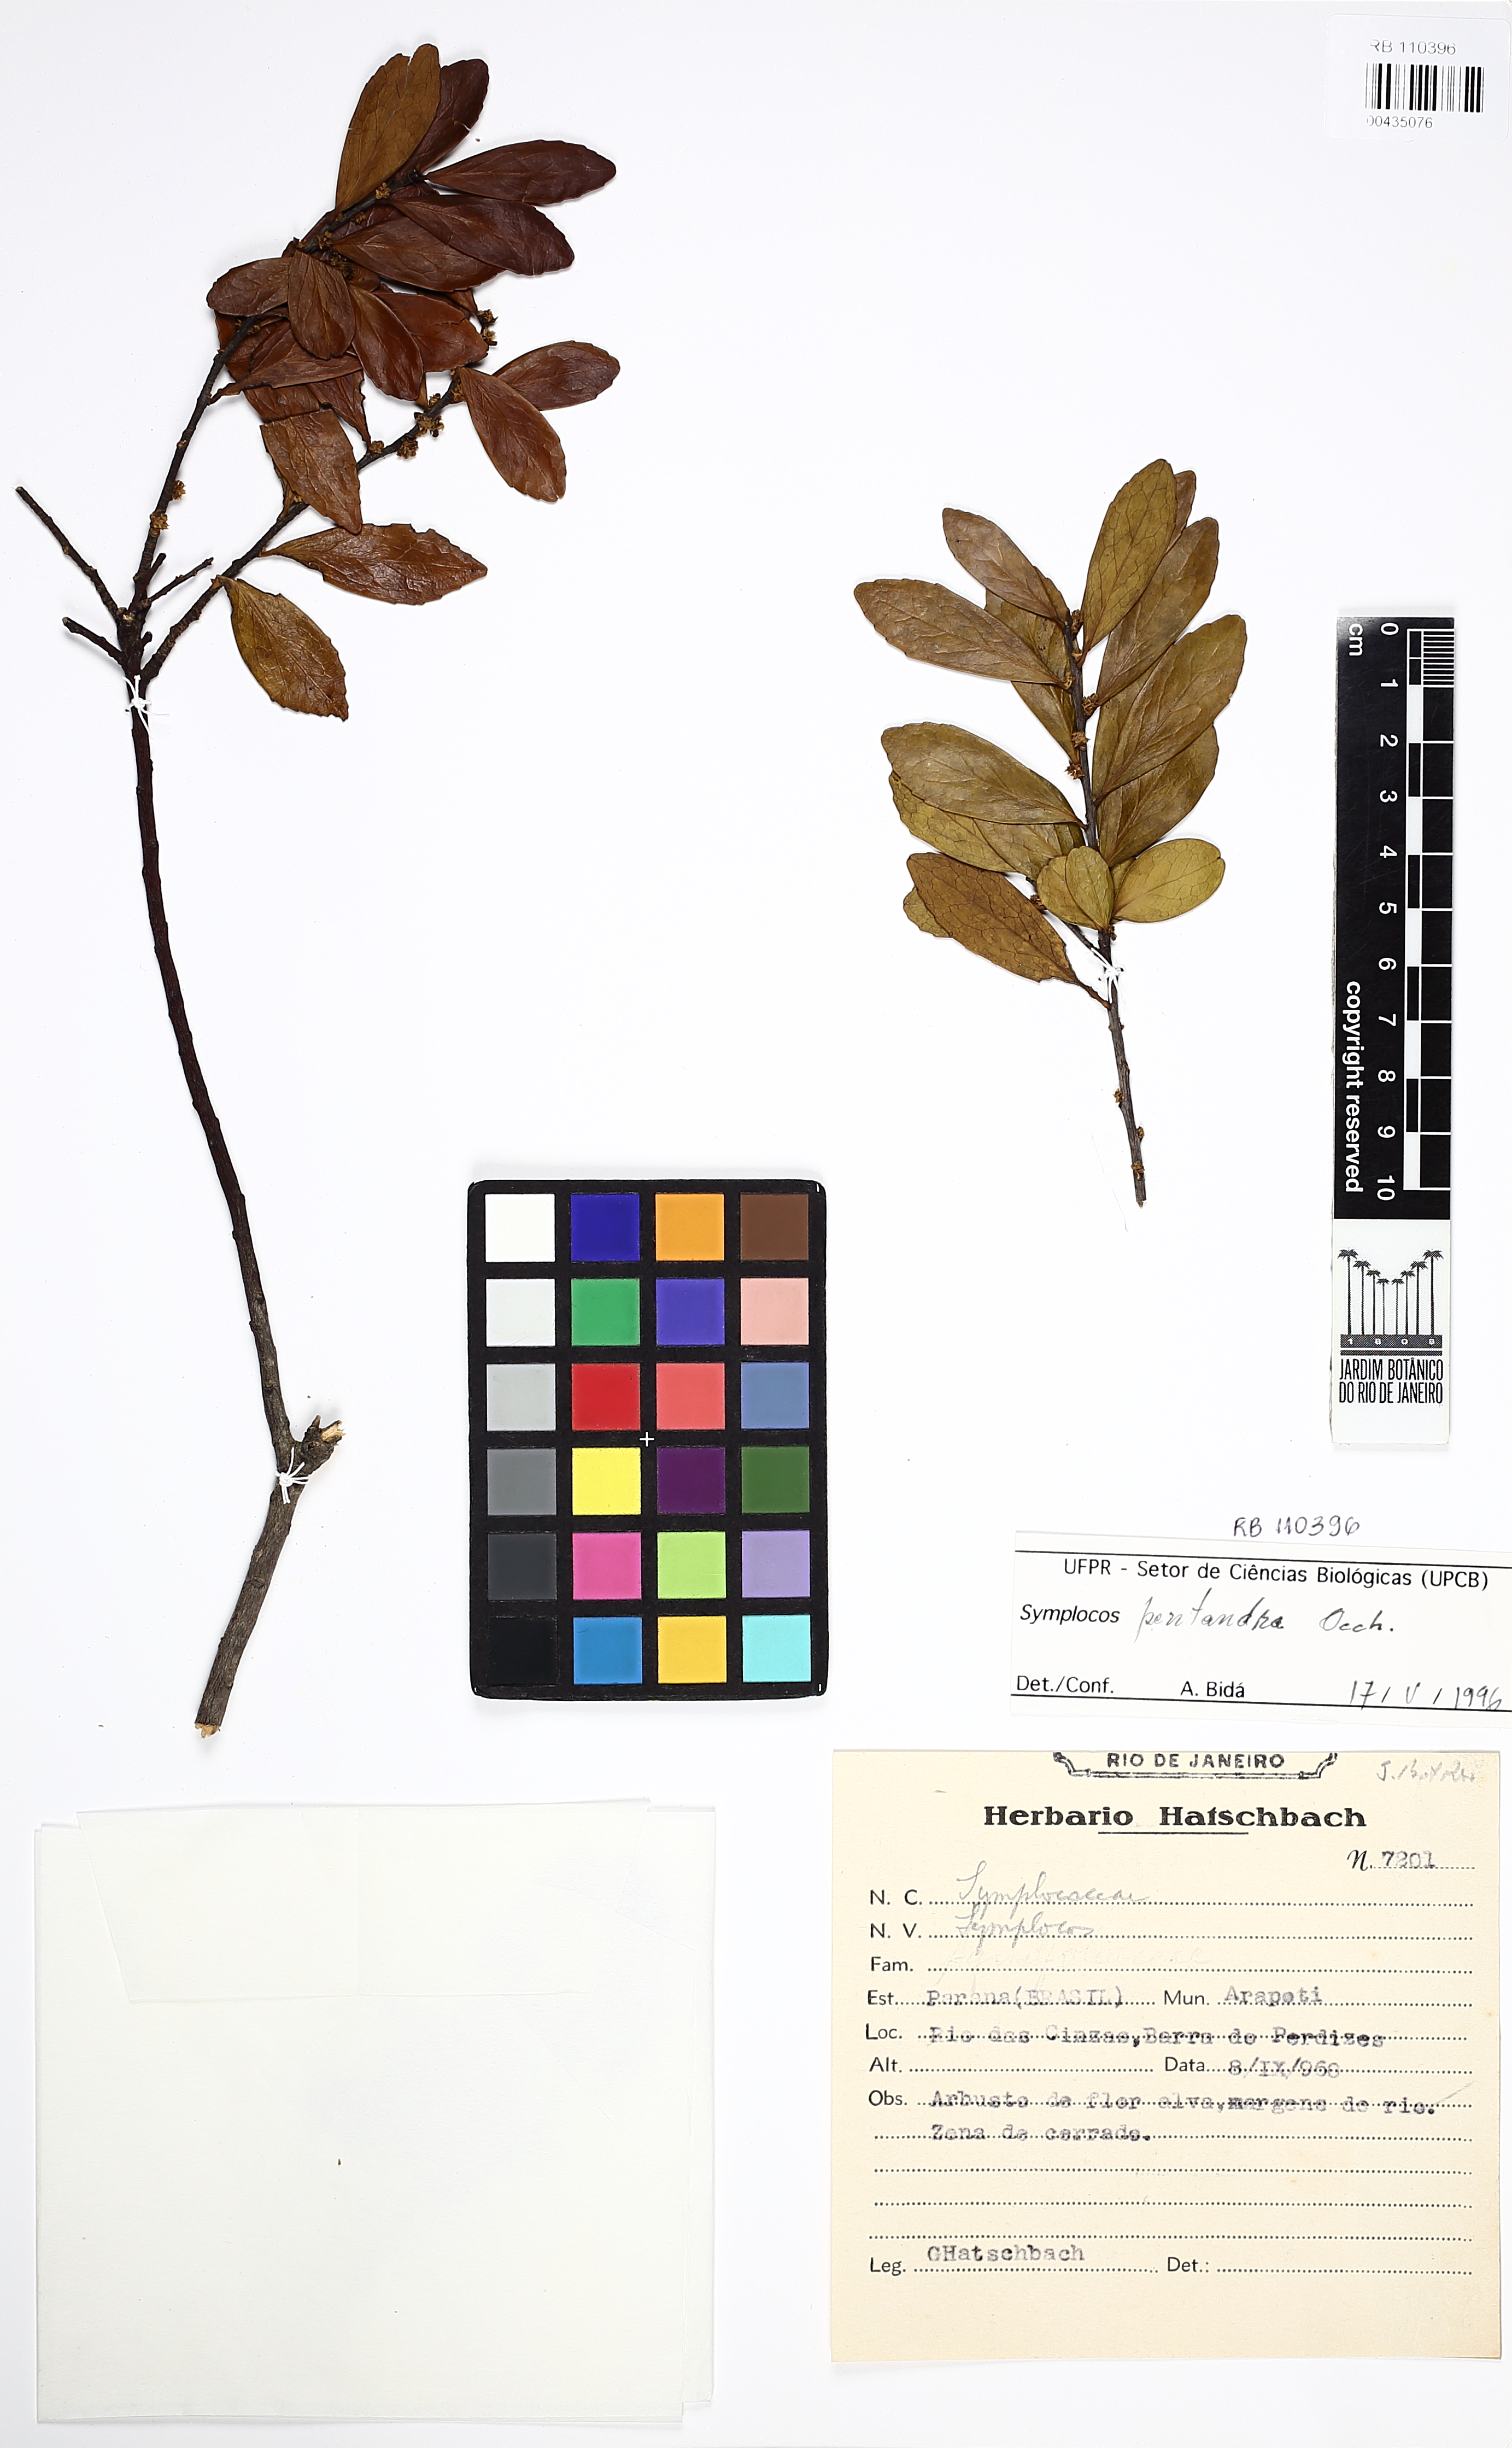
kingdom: Plantae
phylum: Tracheophyta
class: Magnoliopsida
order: Ericales
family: Symplocaceae
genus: Symplocos
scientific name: Symplocos pentandra
